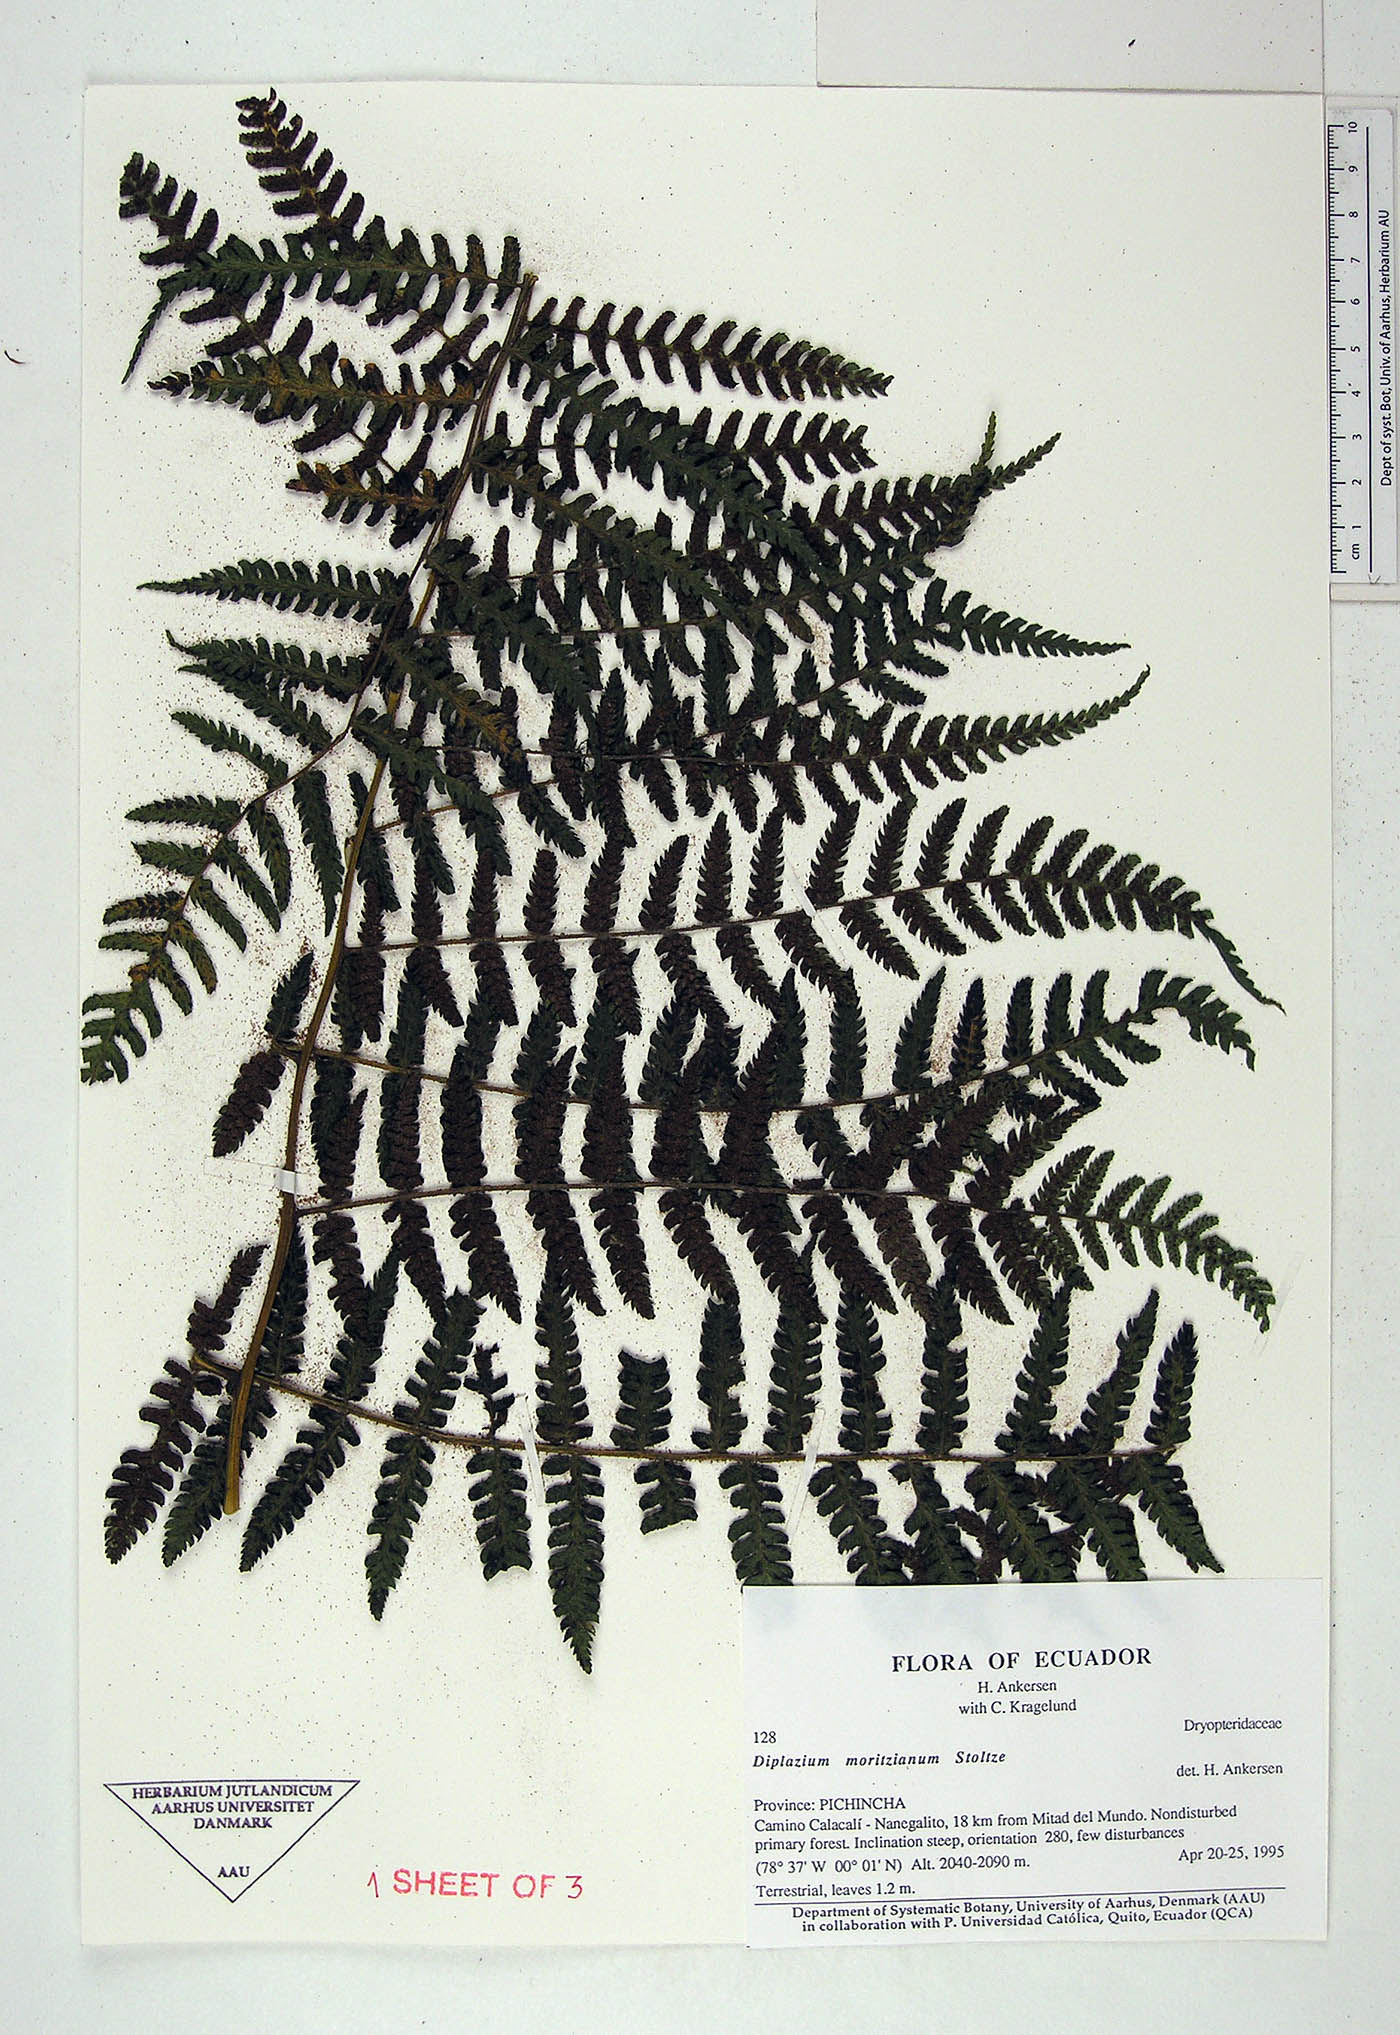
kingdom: Plantae
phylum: Tracheophyta
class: Polypodiopsida
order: Polypodiales
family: Athyriaceae
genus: Diplazium
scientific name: Diplazium moritzianum
